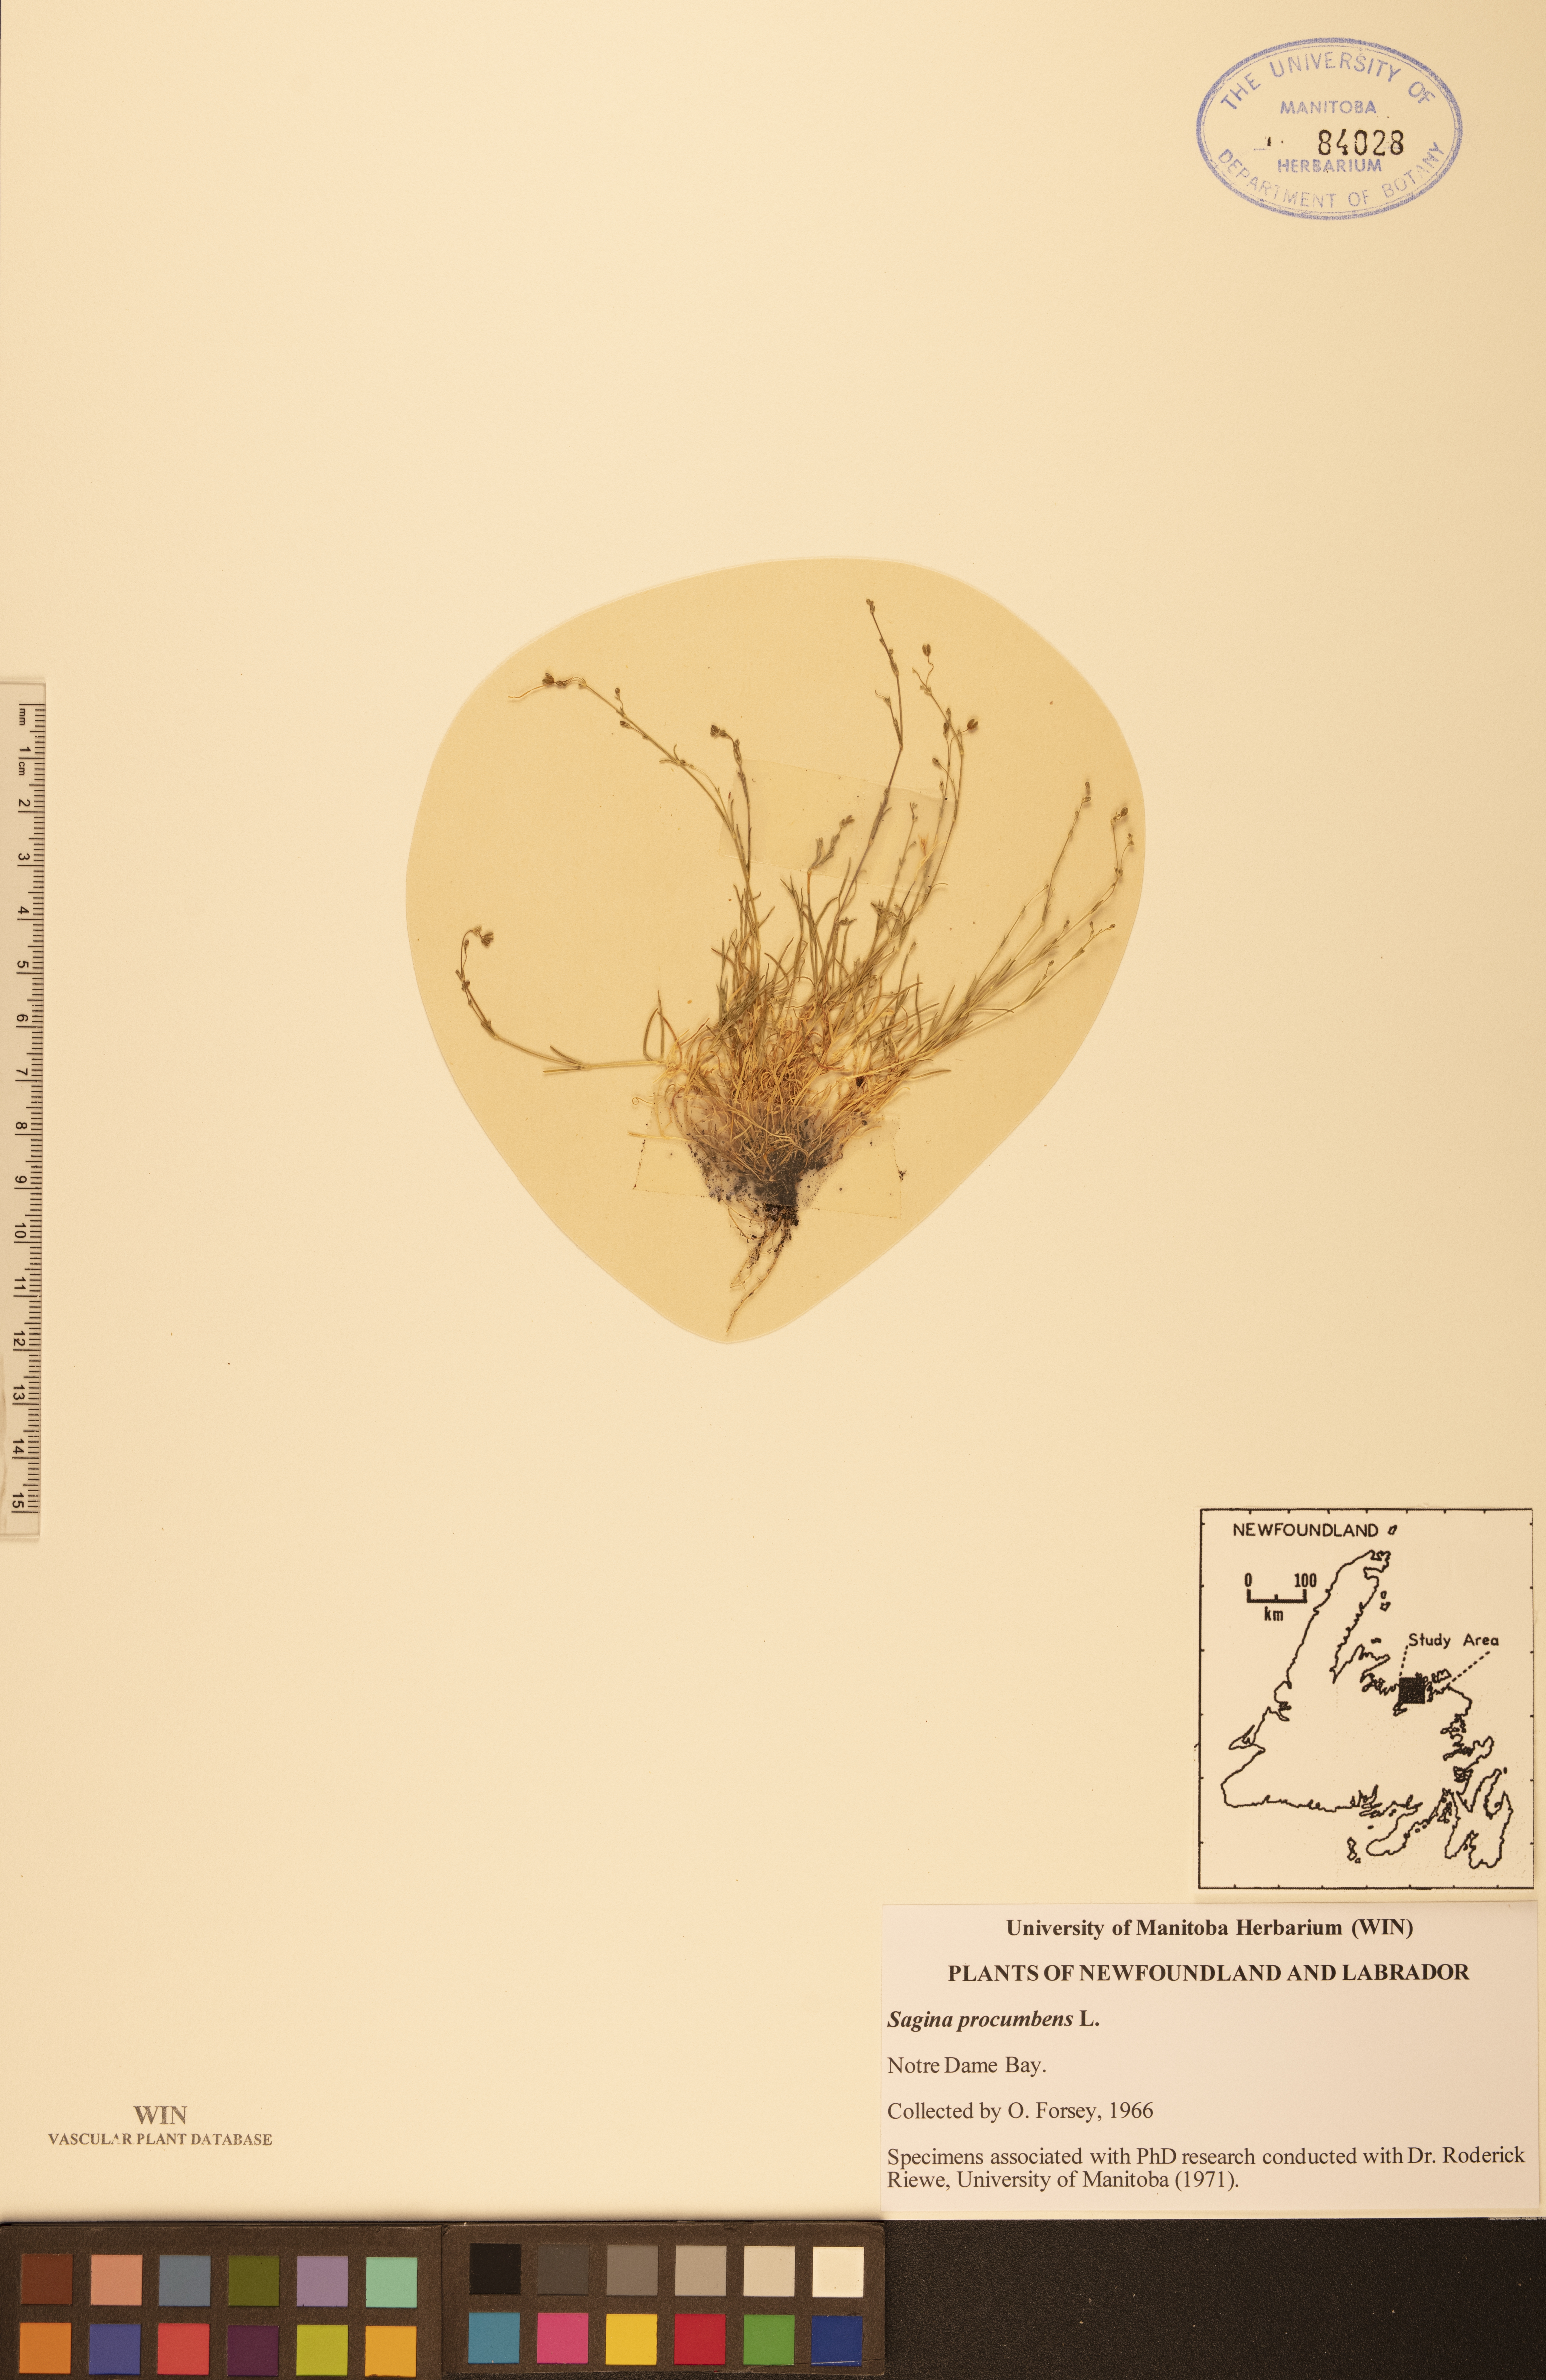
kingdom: Plantae
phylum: Tracheophyta
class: Magnoliopsida
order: Caryophyllales
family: Caryophyllaceae
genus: Sagina
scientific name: Sagina procumbens
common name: Procumbent pearlwort
